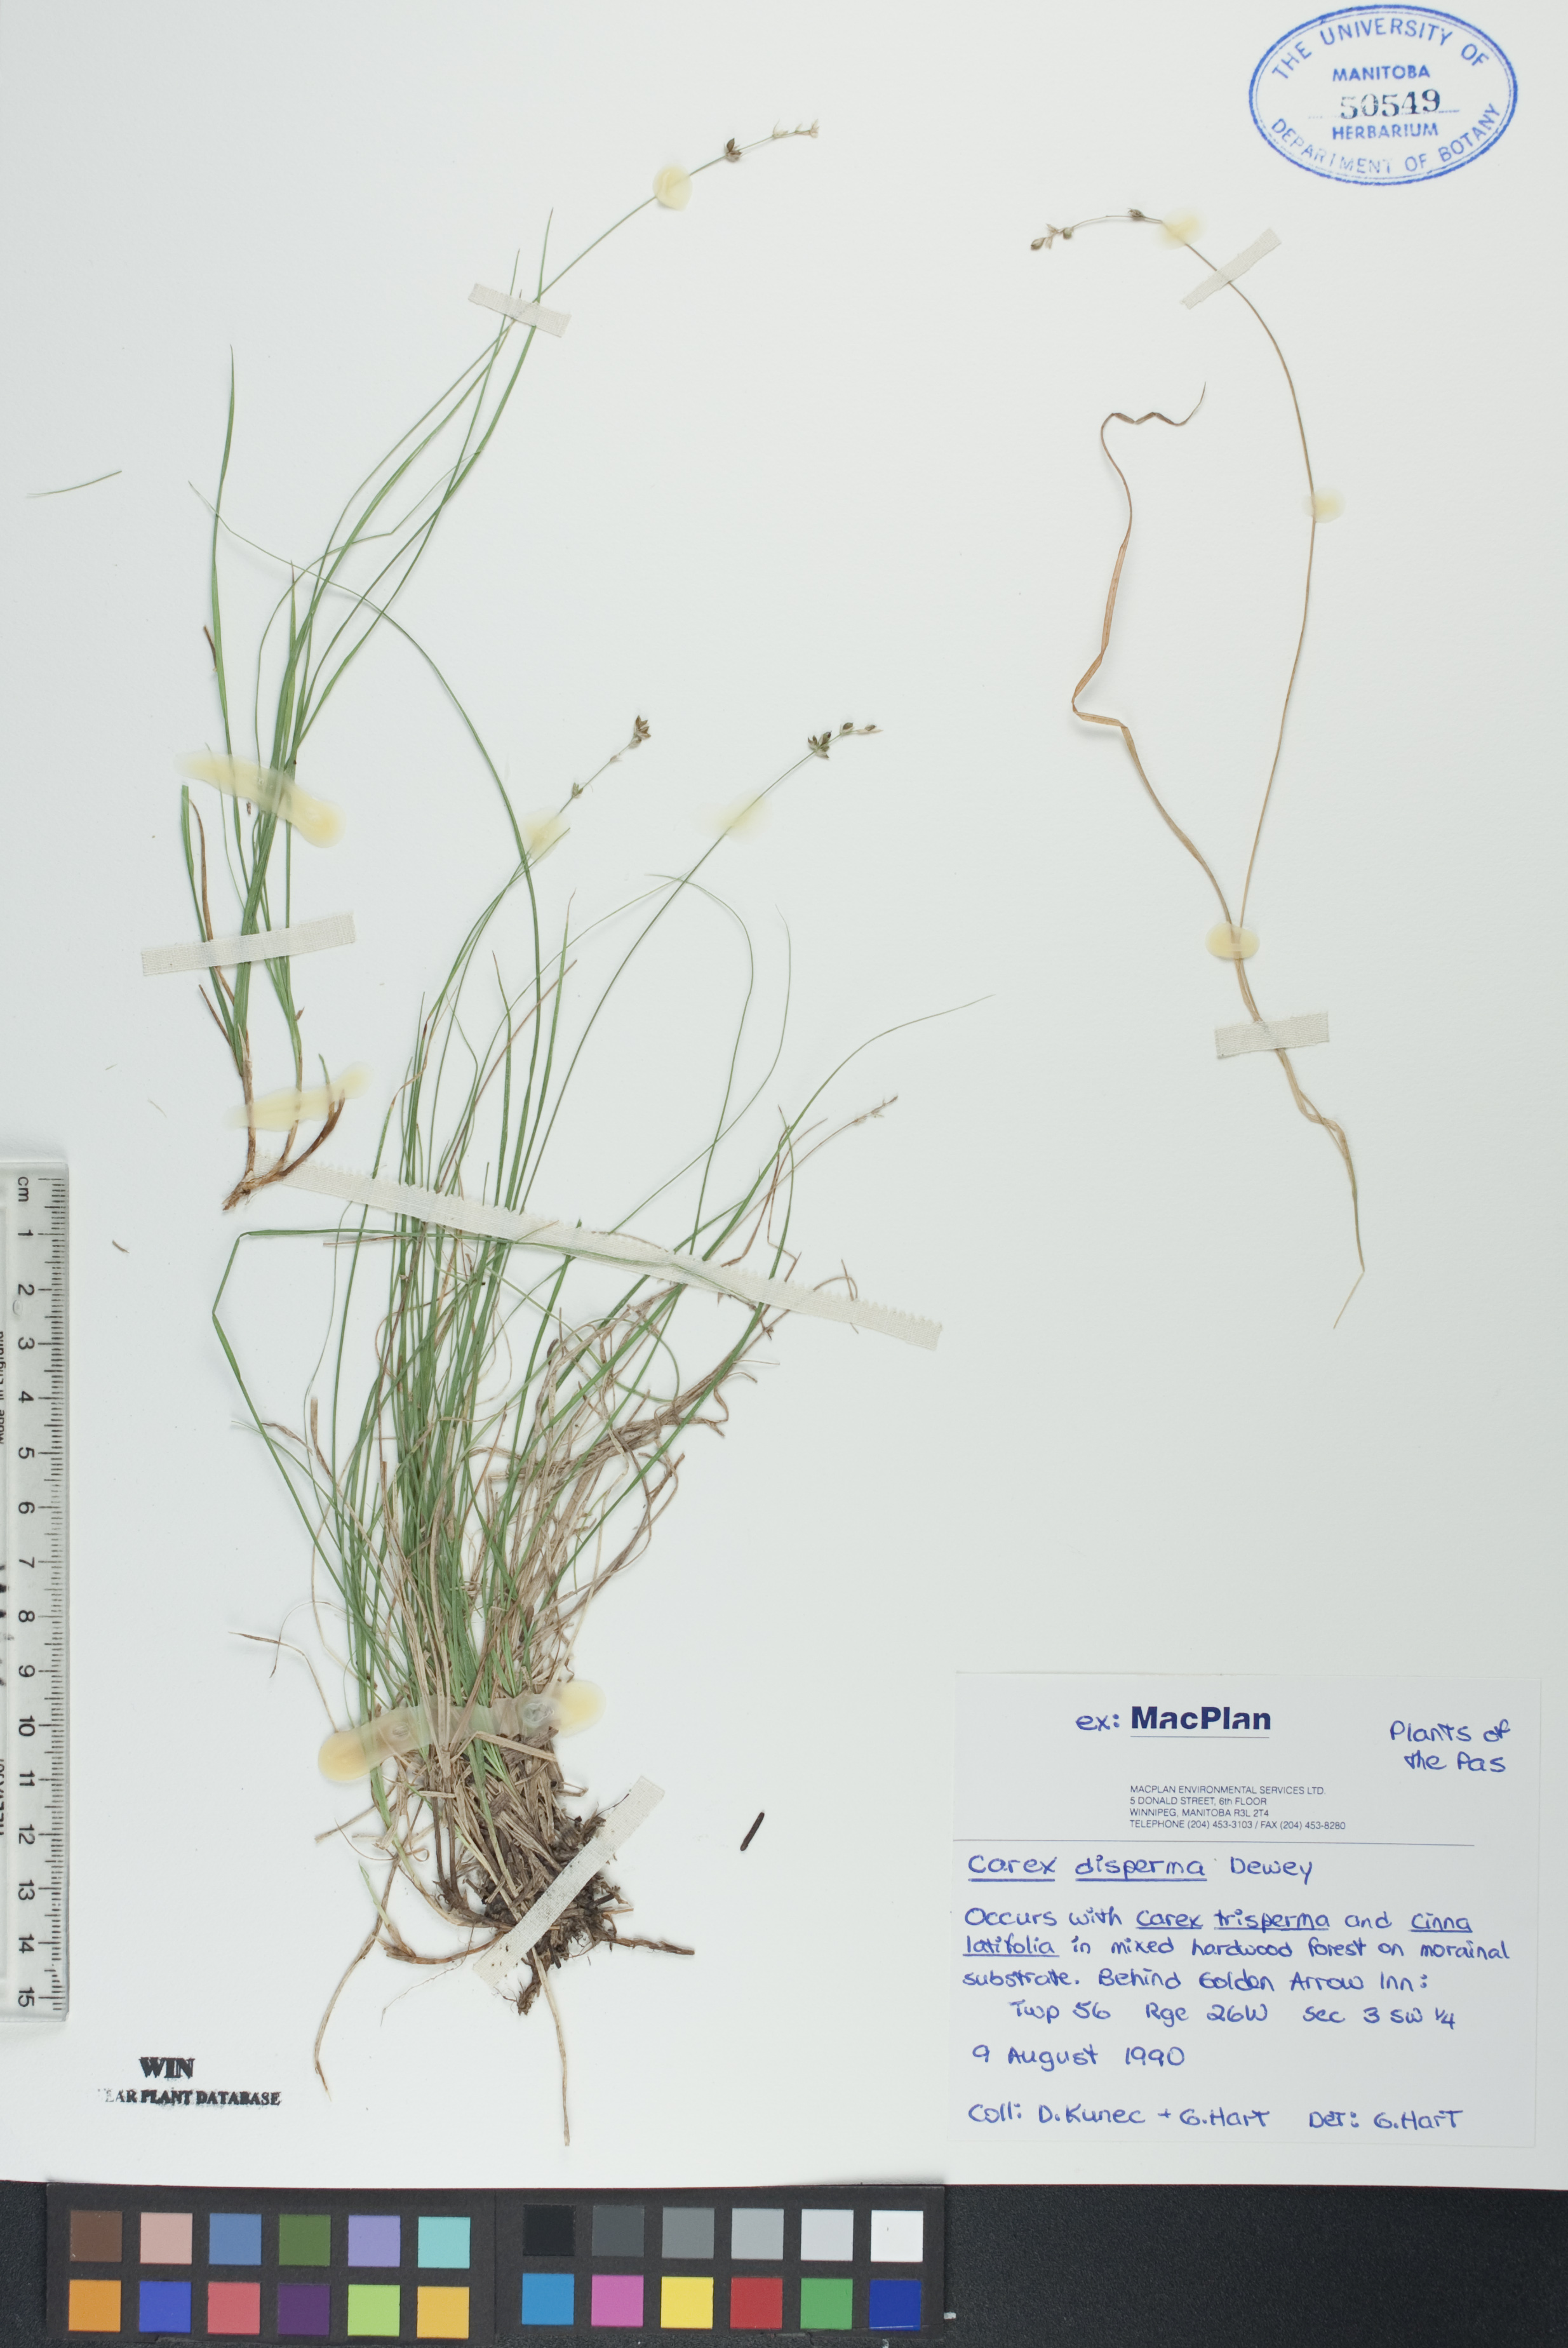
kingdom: Plantae
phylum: Tracheophyta
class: Liliopsida
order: Poales
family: Cyperaceae
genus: Carex
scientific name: Carex disperma
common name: Short-leaved sedge
